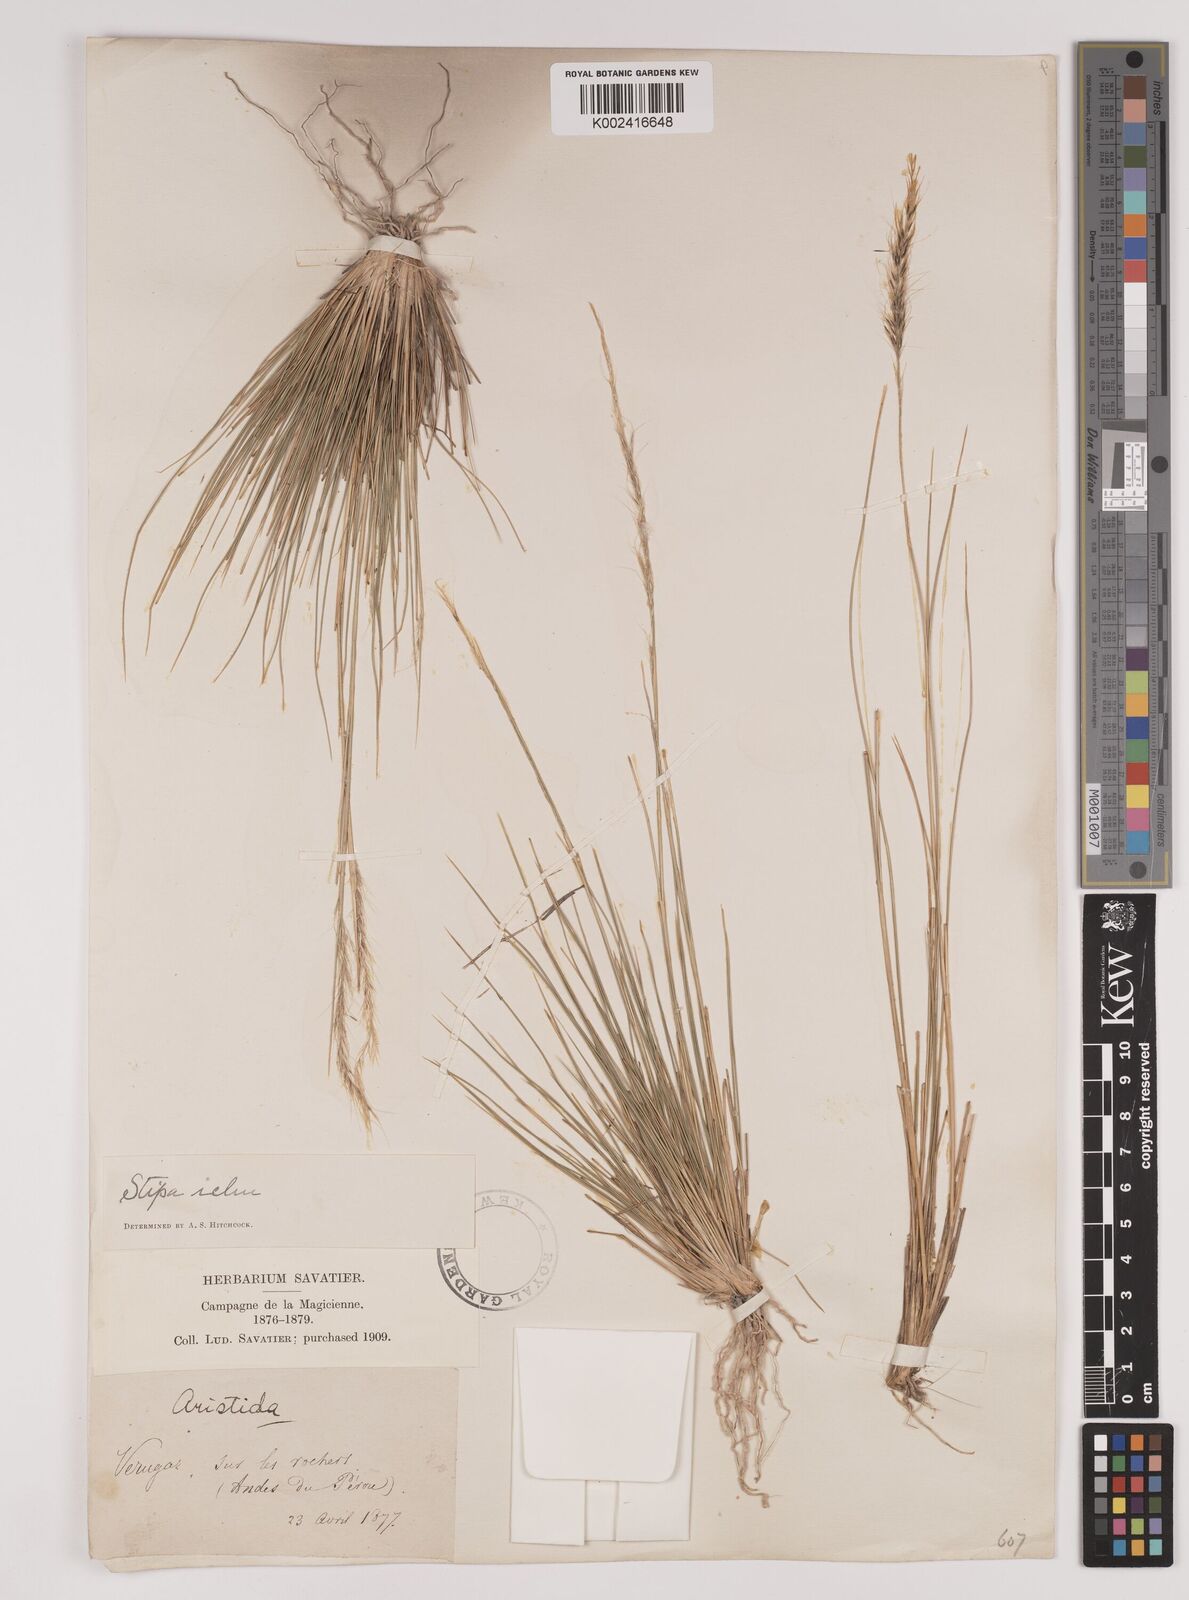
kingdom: Plantae
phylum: Tracheophyta
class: Liliopsida
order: Poales
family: Poaceae
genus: Stipa
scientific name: Stipa pungens
